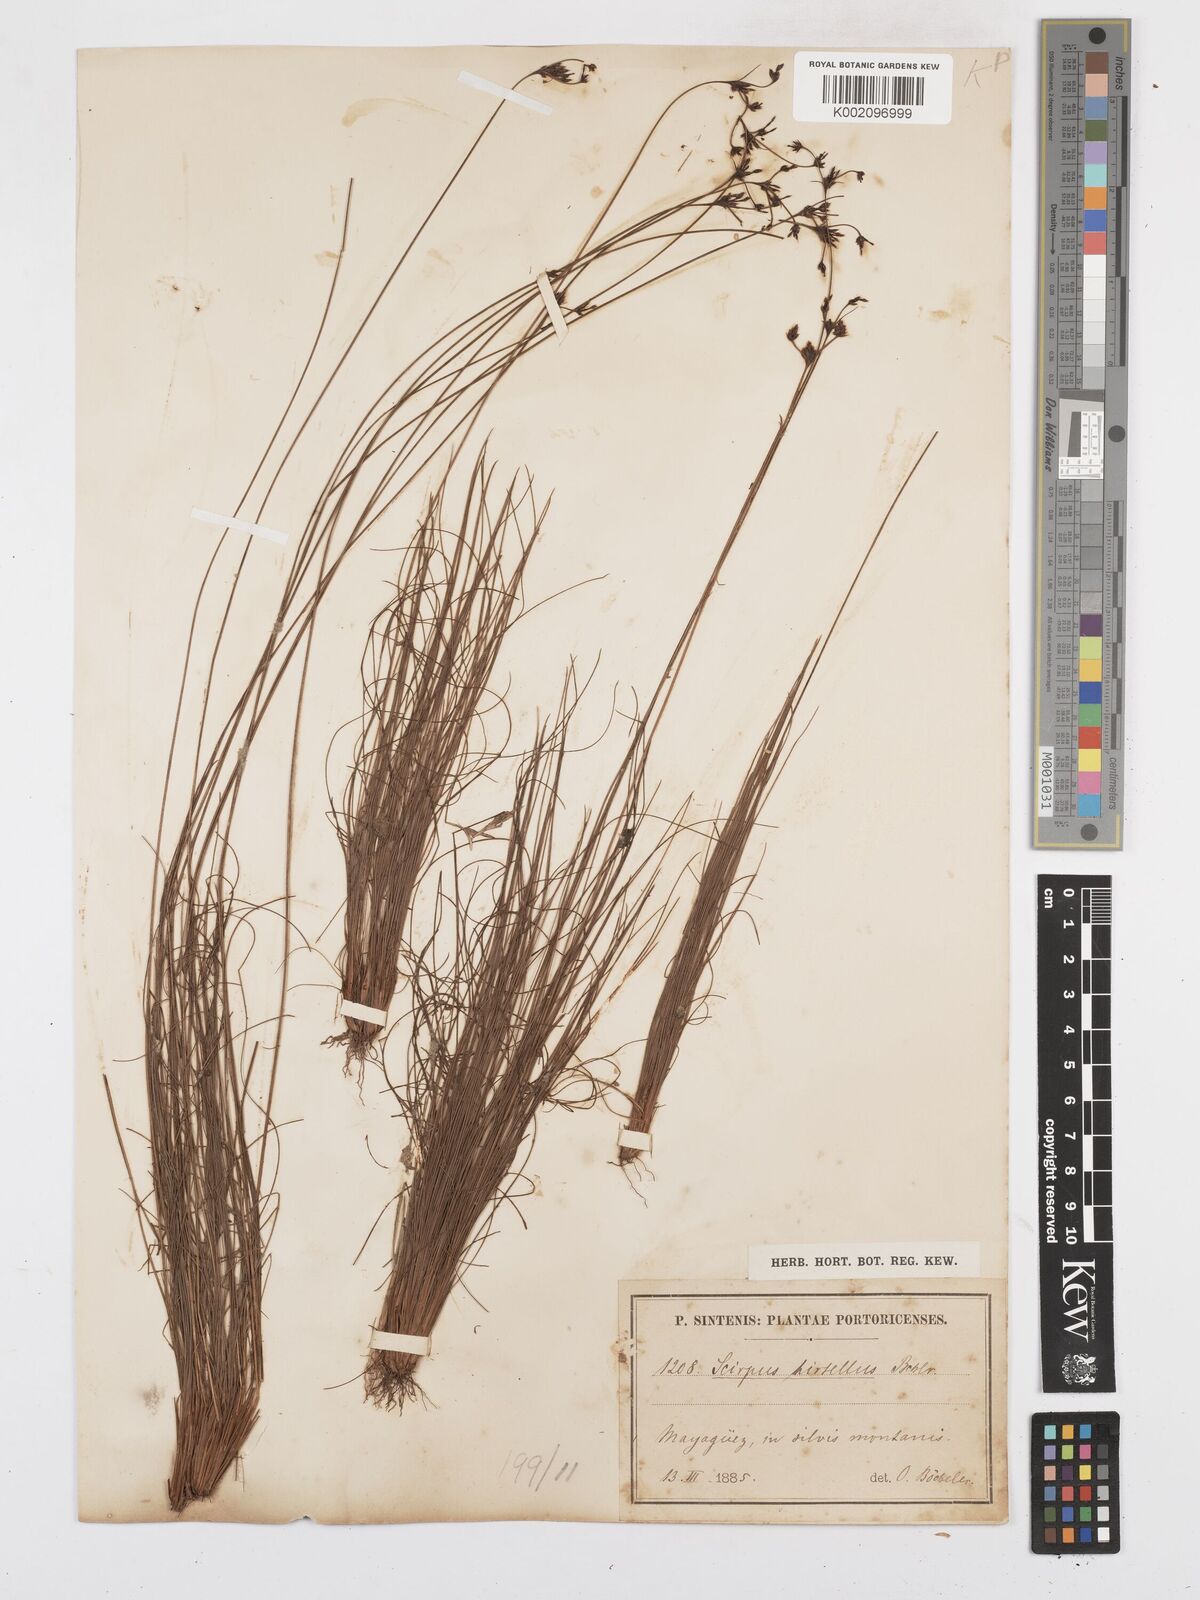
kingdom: Plantae
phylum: Tracheophyta
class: Liliopsida
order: Poales
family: Cyperaceae
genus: Bulbostylis
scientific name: Bulbostylis vestita
